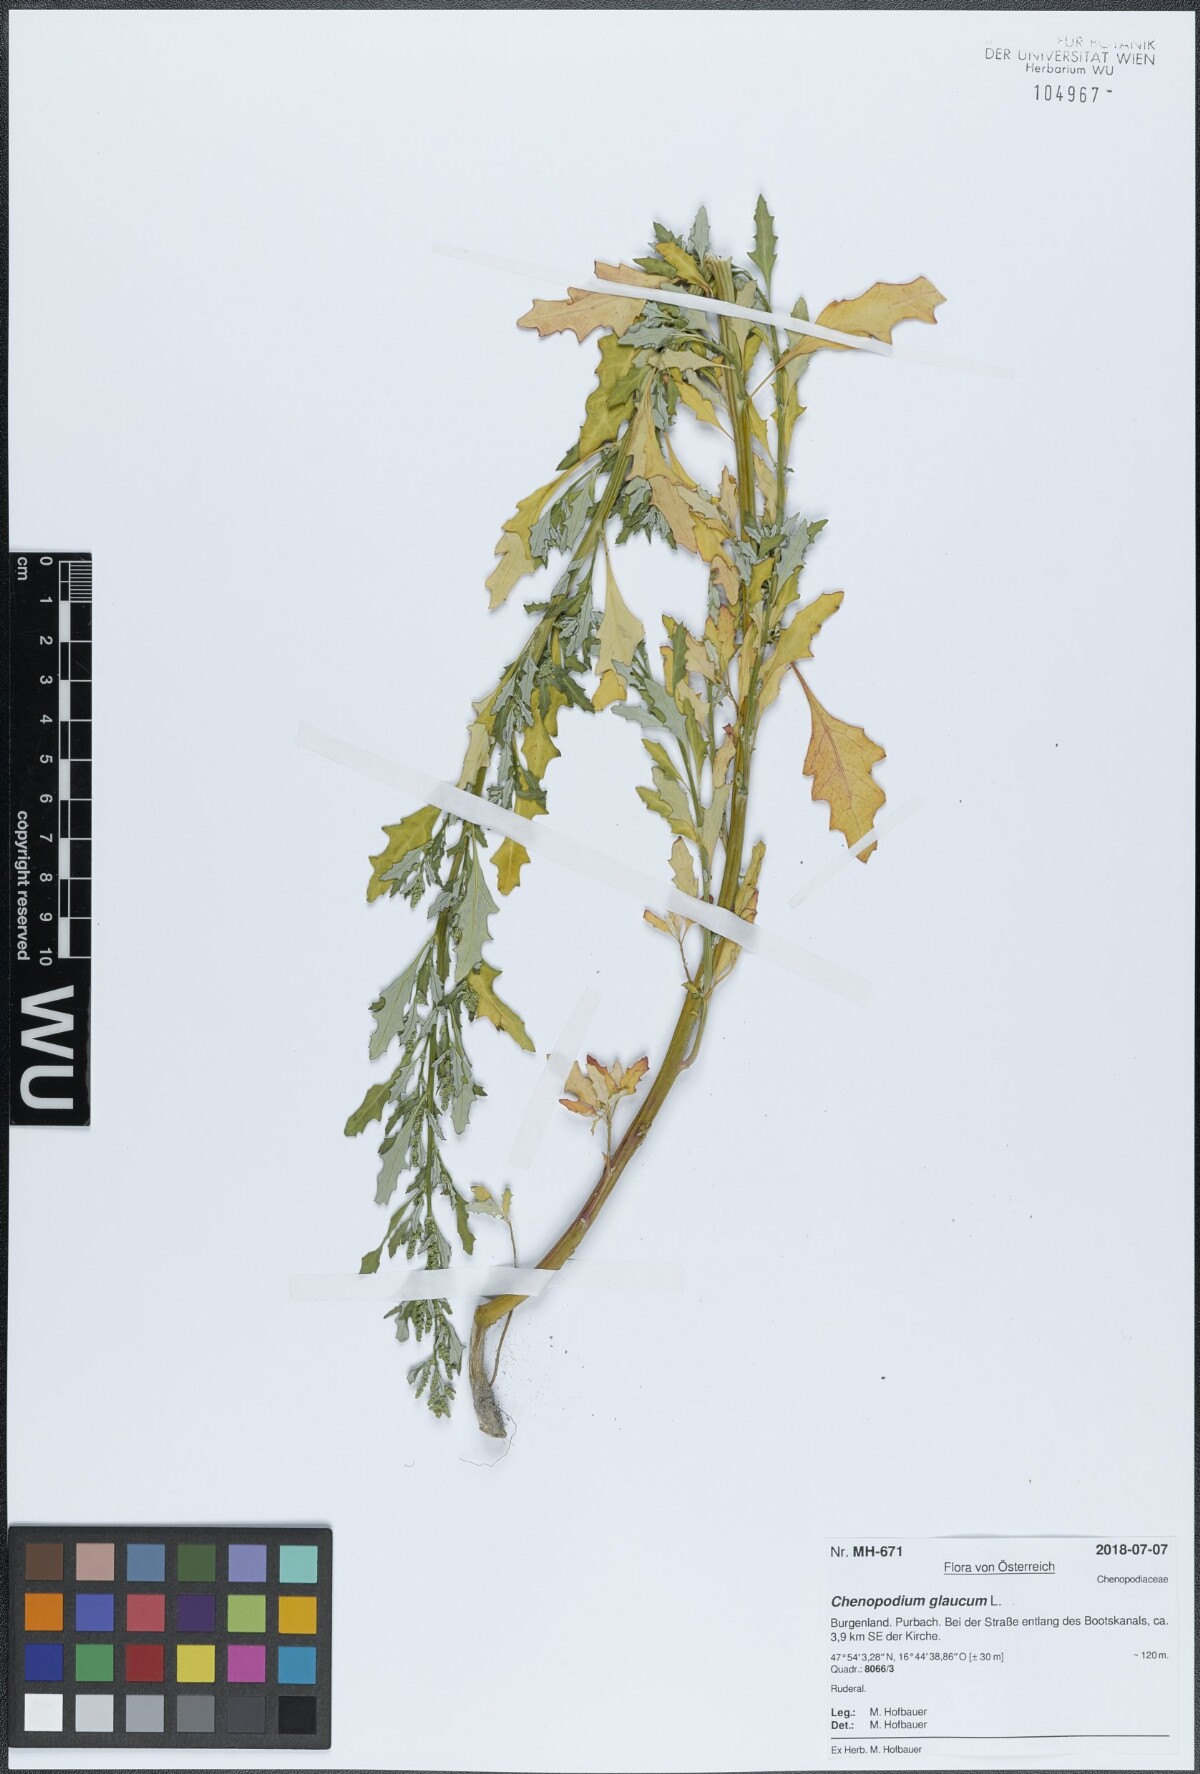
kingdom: Plantae
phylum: Tracheophyta
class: Magnoliopsida
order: Caryophyllales
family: Amaranthaceae
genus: Oxybasis
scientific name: Oxybasis glauca
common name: Glaucous goosefoot
